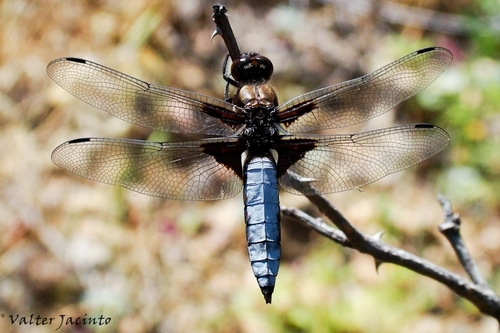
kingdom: Animalia
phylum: Arthropoda
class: Insecta
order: Odonata
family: Libellulidae
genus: Libellula
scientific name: Libellula depressa
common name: Broad-bodied chaser
